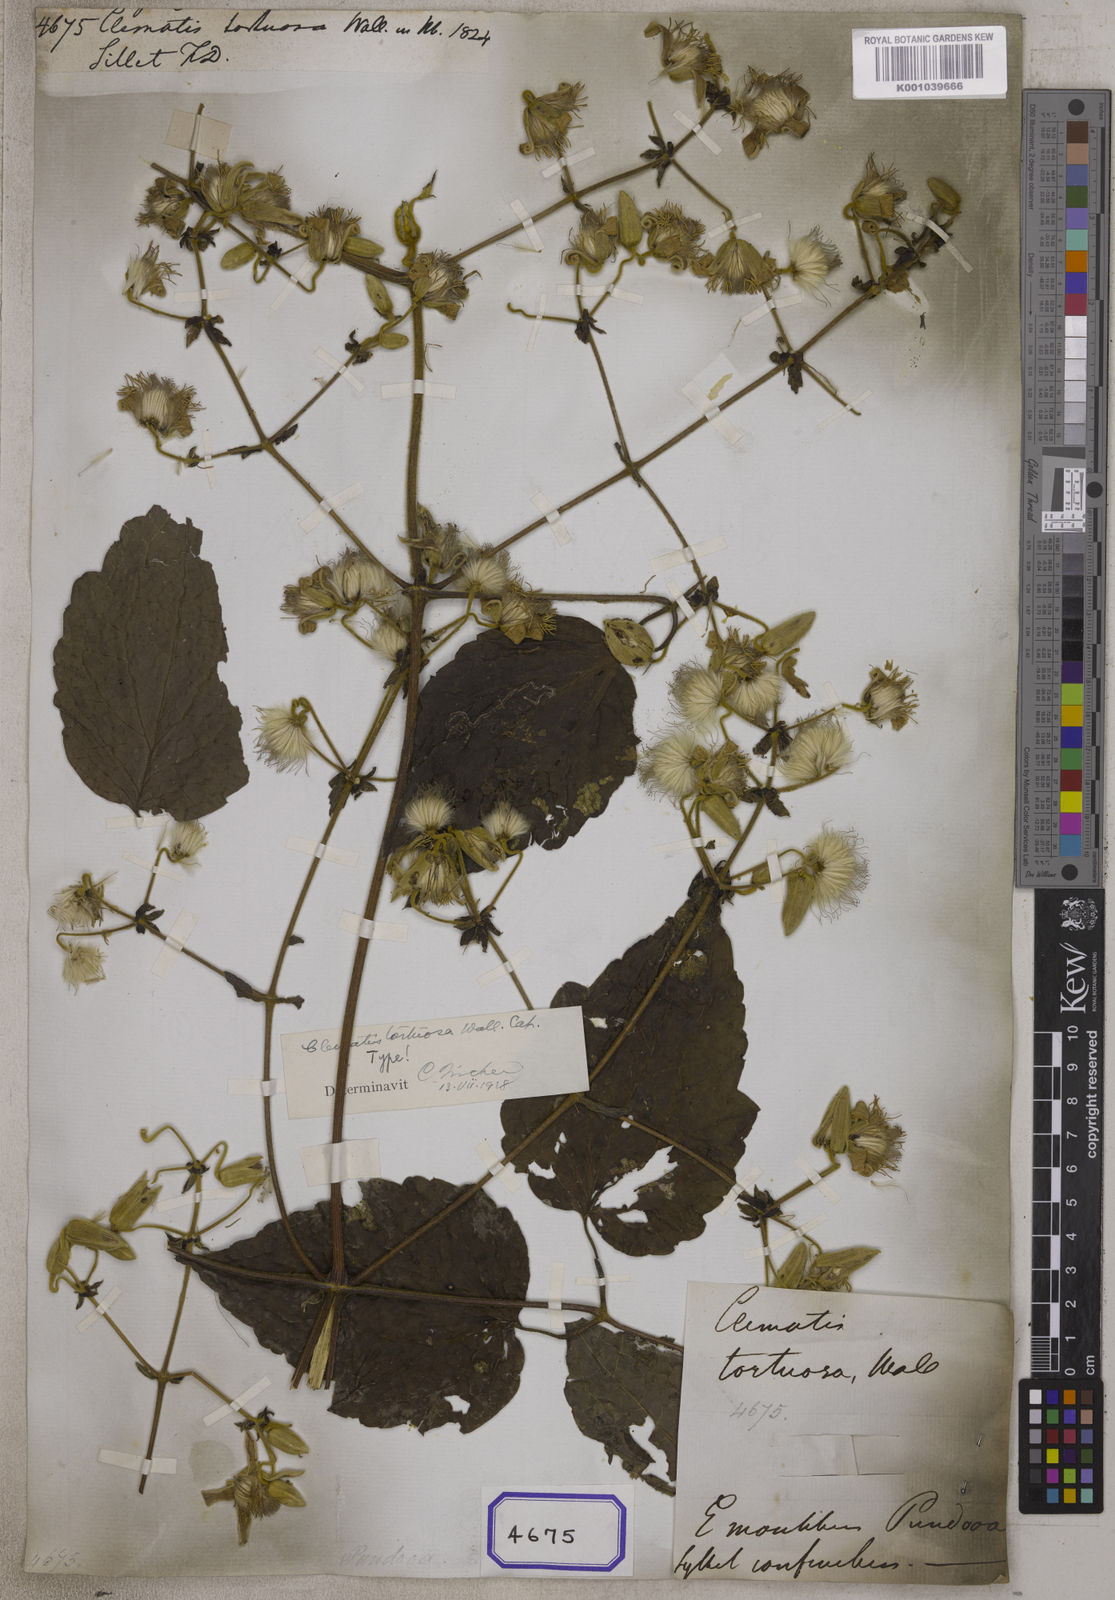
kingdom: Plantae
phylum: Tracheophyta
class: Magnoliopsida
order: Ranunculales
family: Ranunculaceae
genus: Clematis
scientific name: Clematis
